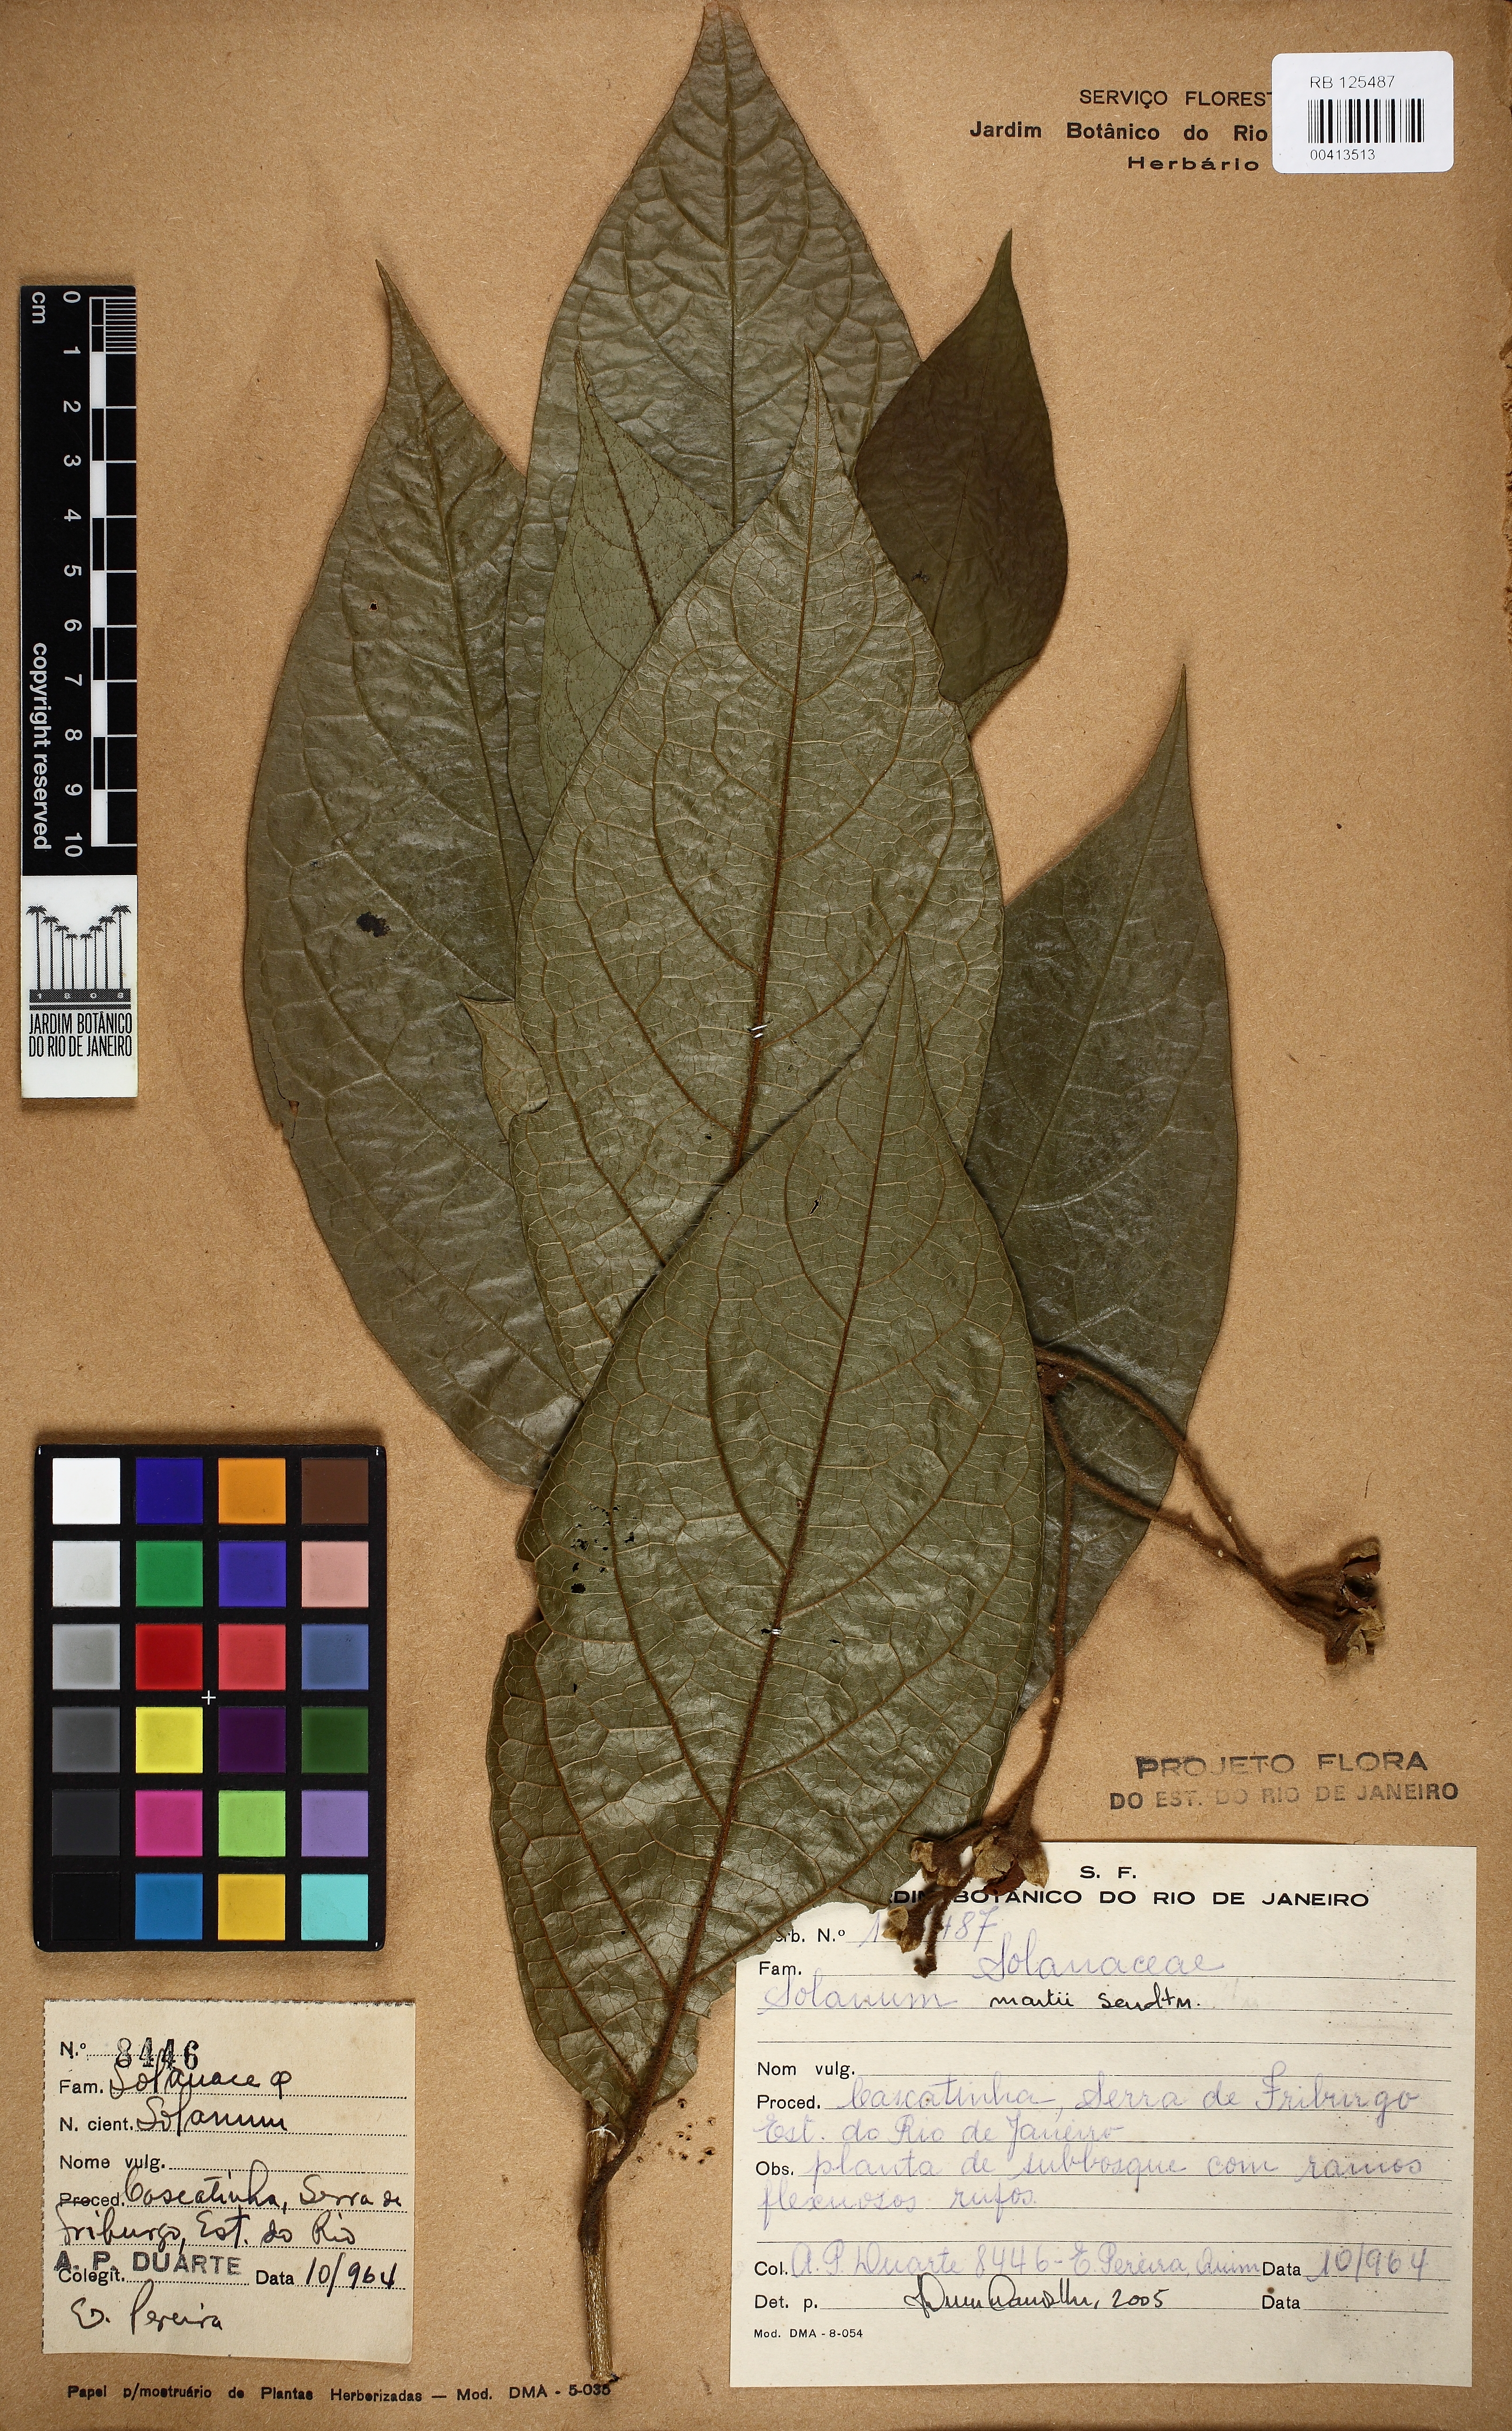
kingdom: Plantae
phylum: Tracheophyta
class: Magnoliopsida
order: Solanales
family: Solanaceae
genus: Solanum
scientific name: Solanum martii
